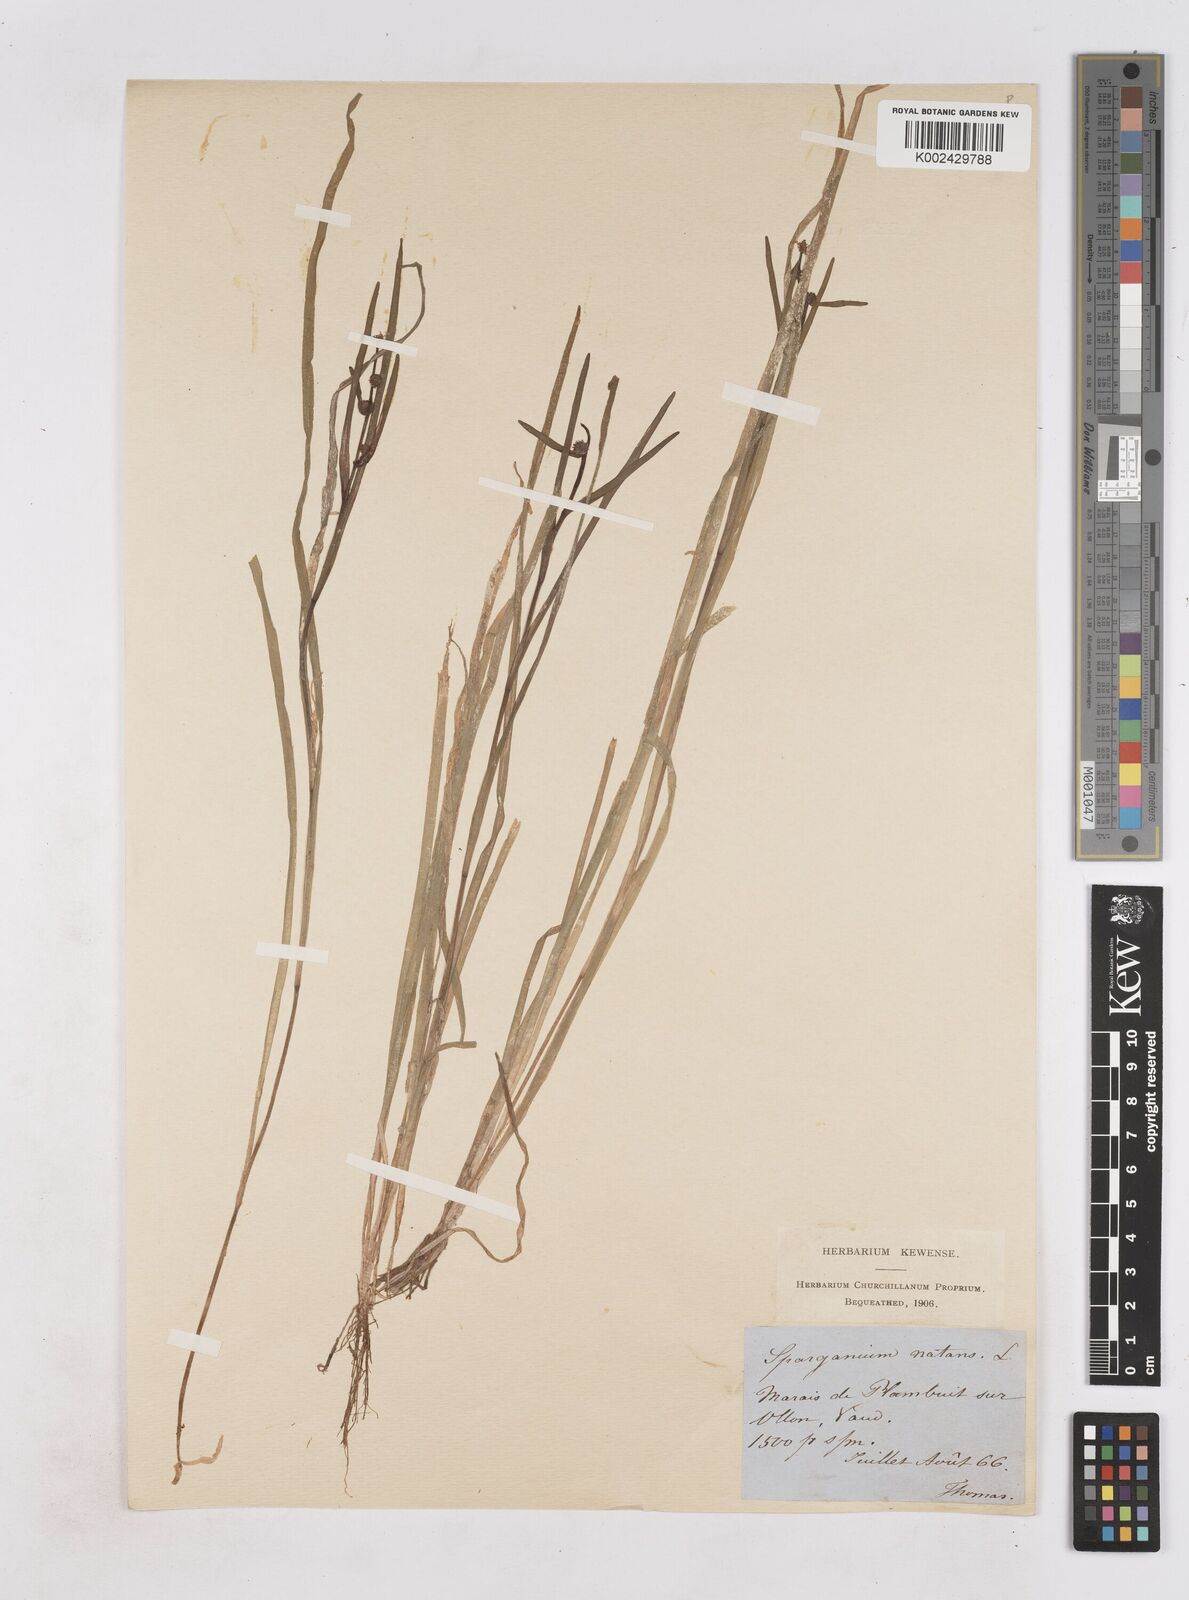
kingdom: Plantae
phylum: Tracheophyta
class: Liliopsida
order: Poales
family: Typhaceae
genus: Sparganium
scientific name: Sparganium angustifolium
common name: Floating bur-reed
